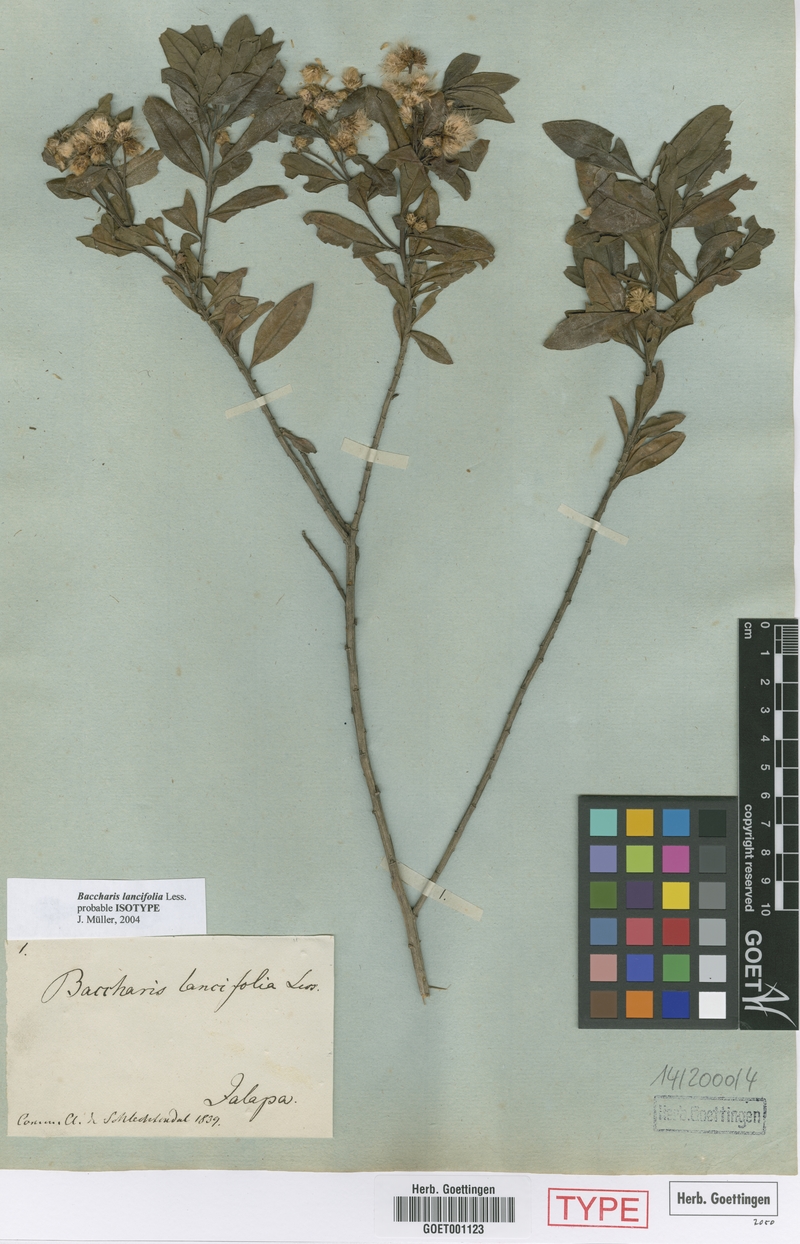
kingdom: Plantae
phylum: Tracheophyta
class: Magnoliopsida
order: Asterales
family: Asteraceae
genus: Baccharis
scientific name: Baccharis lancifolia
